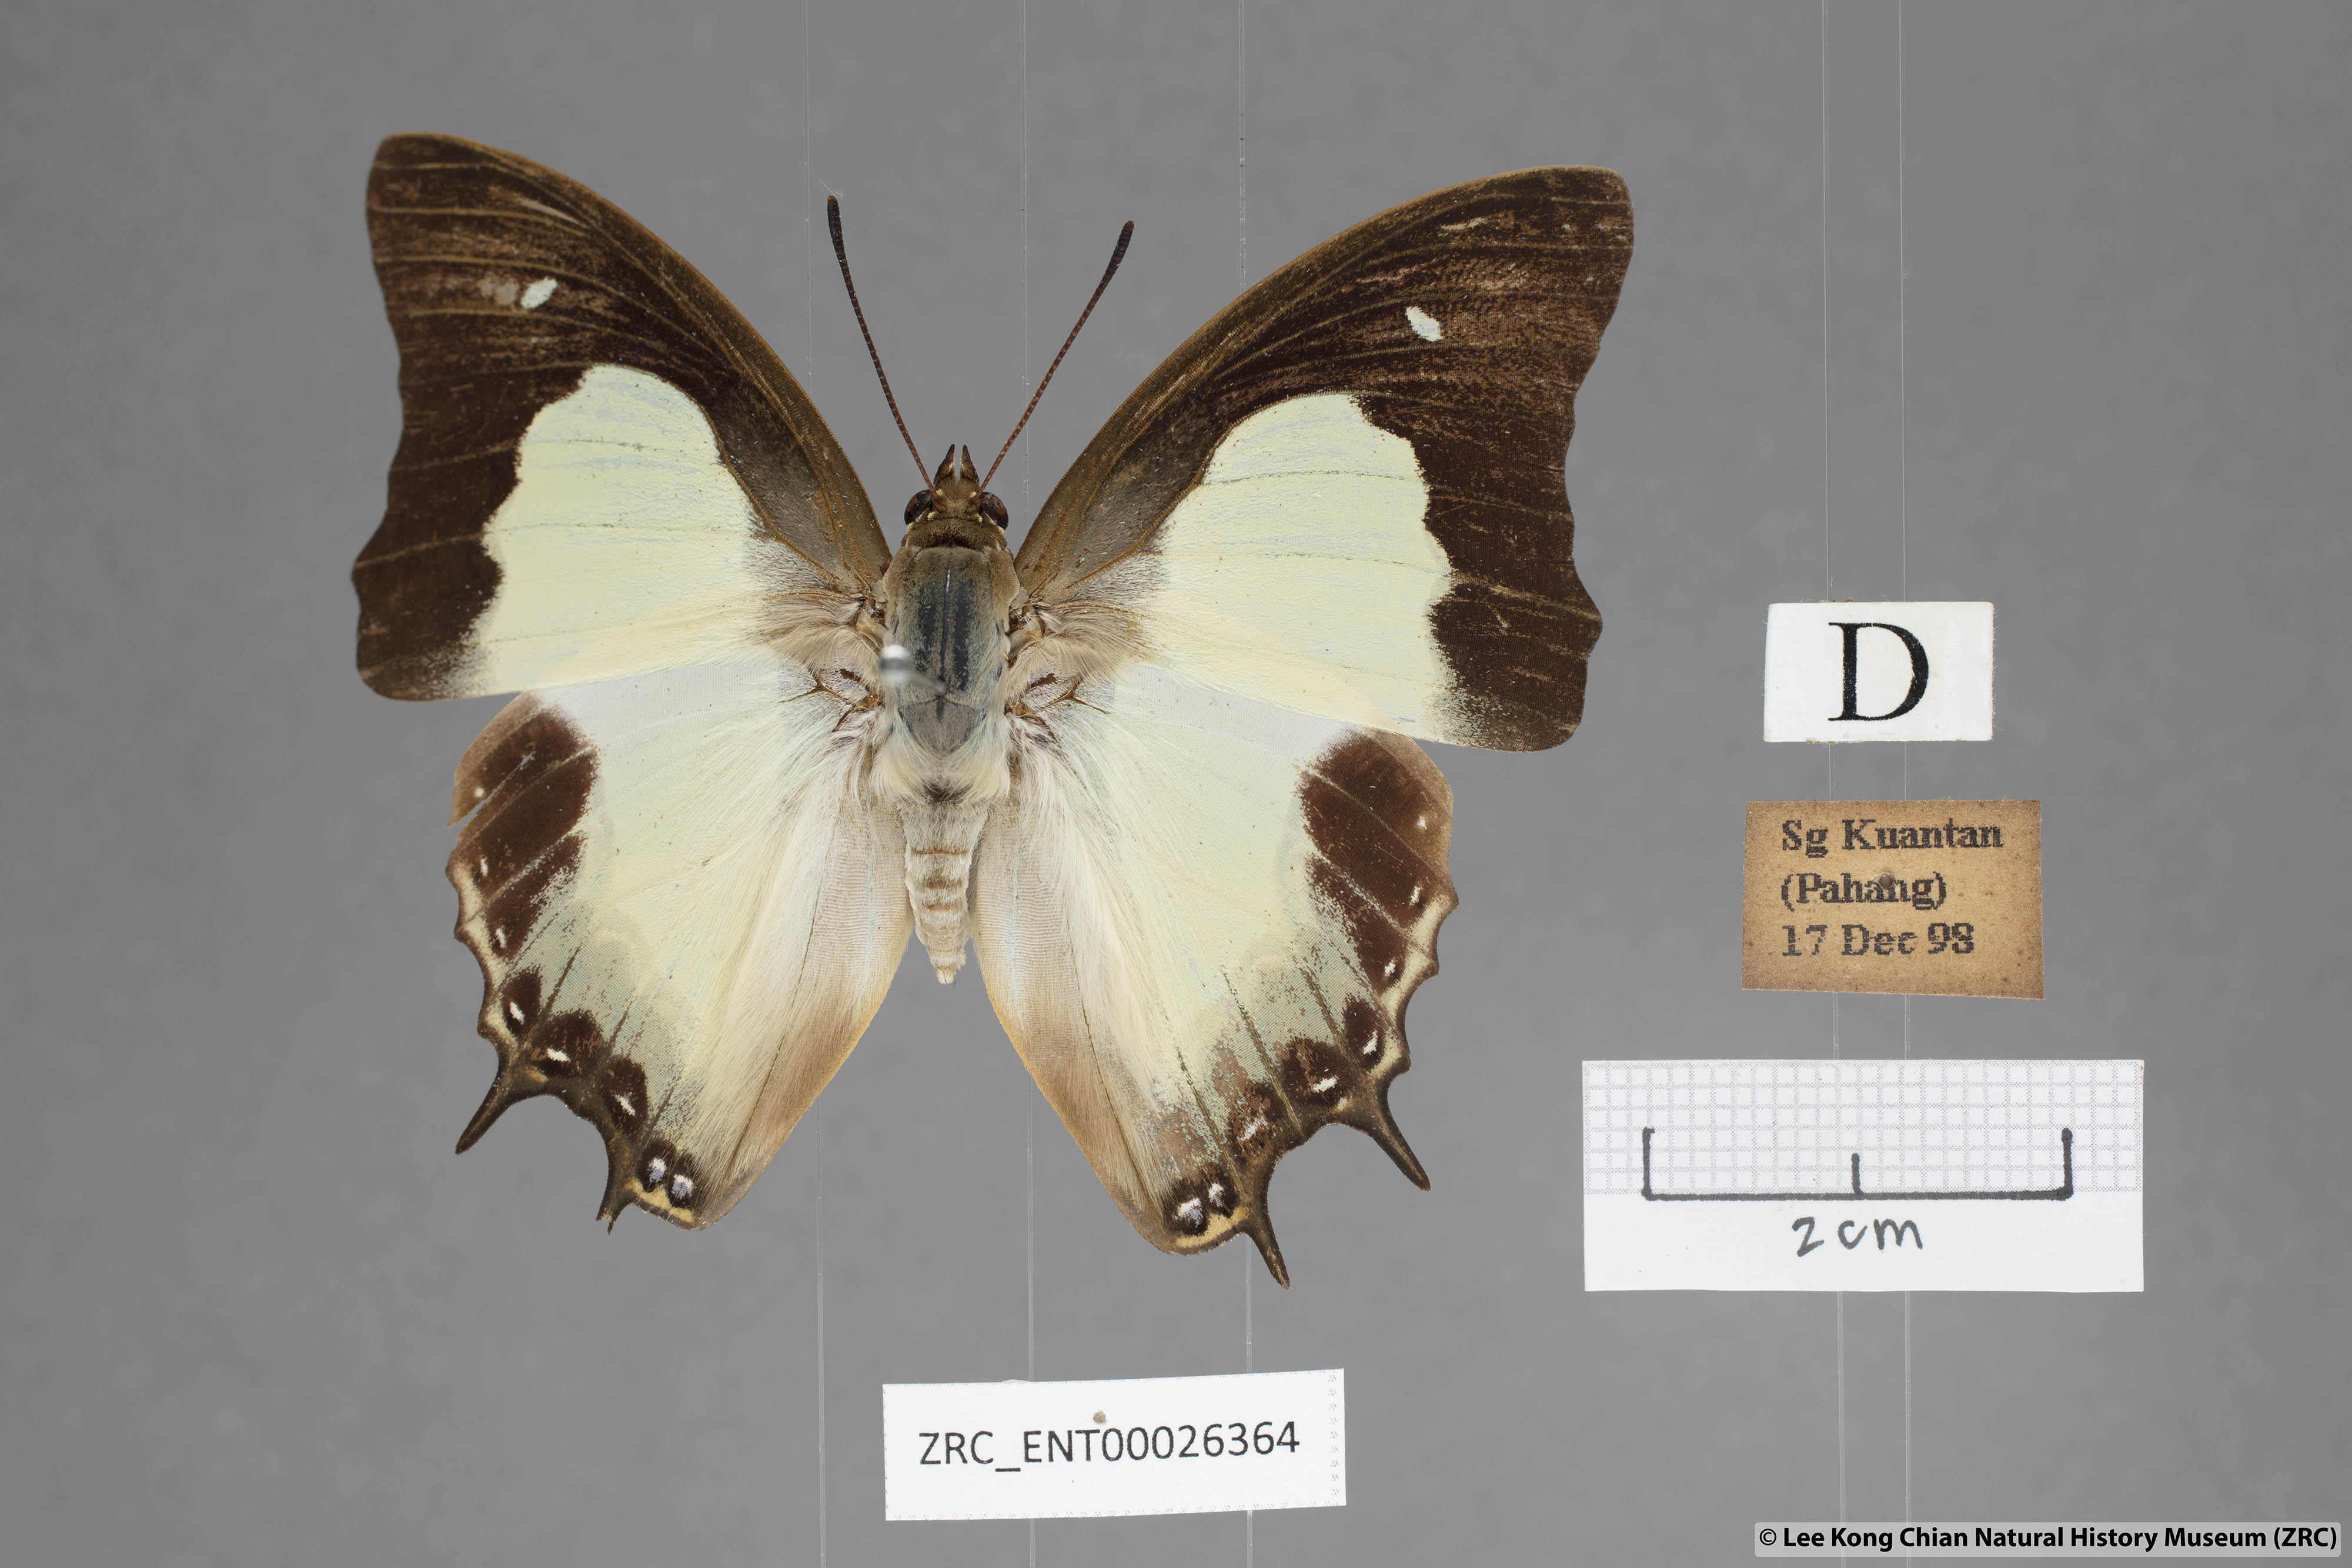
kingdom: Animalia
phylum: Arthropoda
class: Insecta
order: Lepidoptera
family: Nymphalidae
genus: Polyura
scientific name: Polyura moori
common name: Malayan nawab
